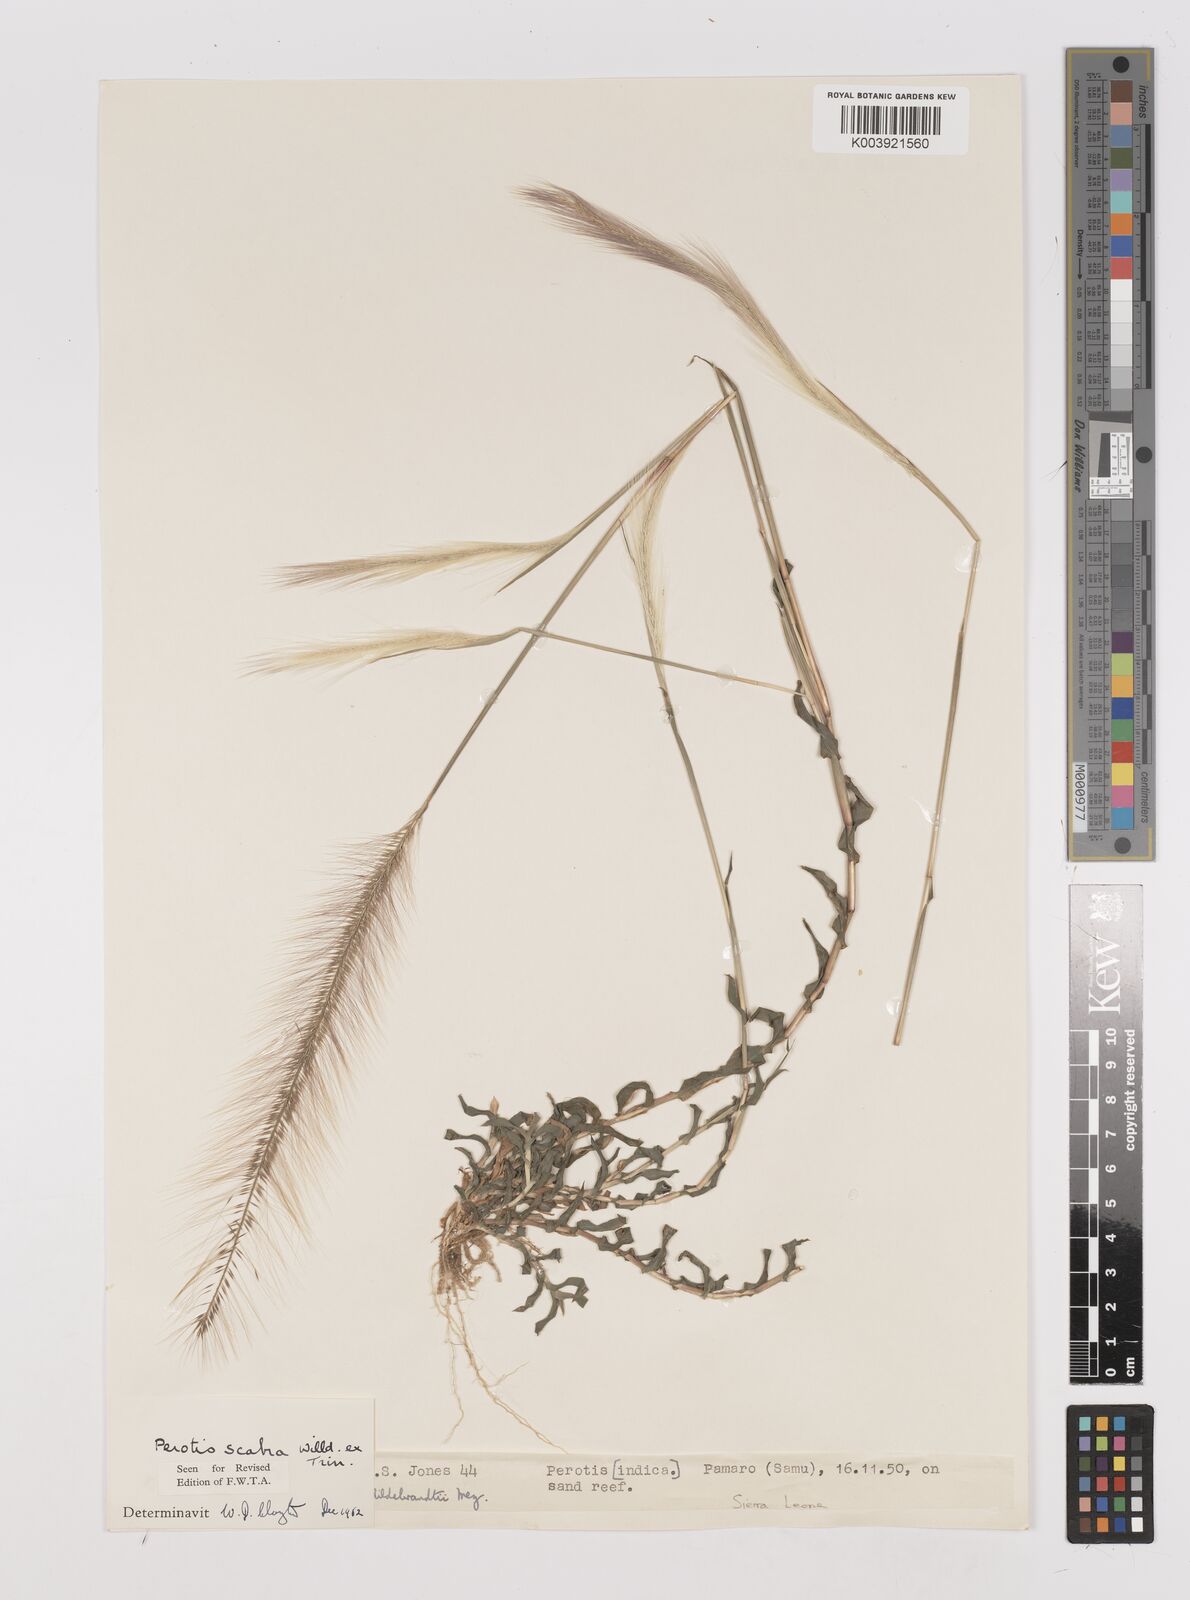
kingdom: Plantae
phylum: Tracheophyta
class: Liliopsida
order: Poales
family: Poaceae
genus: Perotis
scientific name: Perotis scabra
